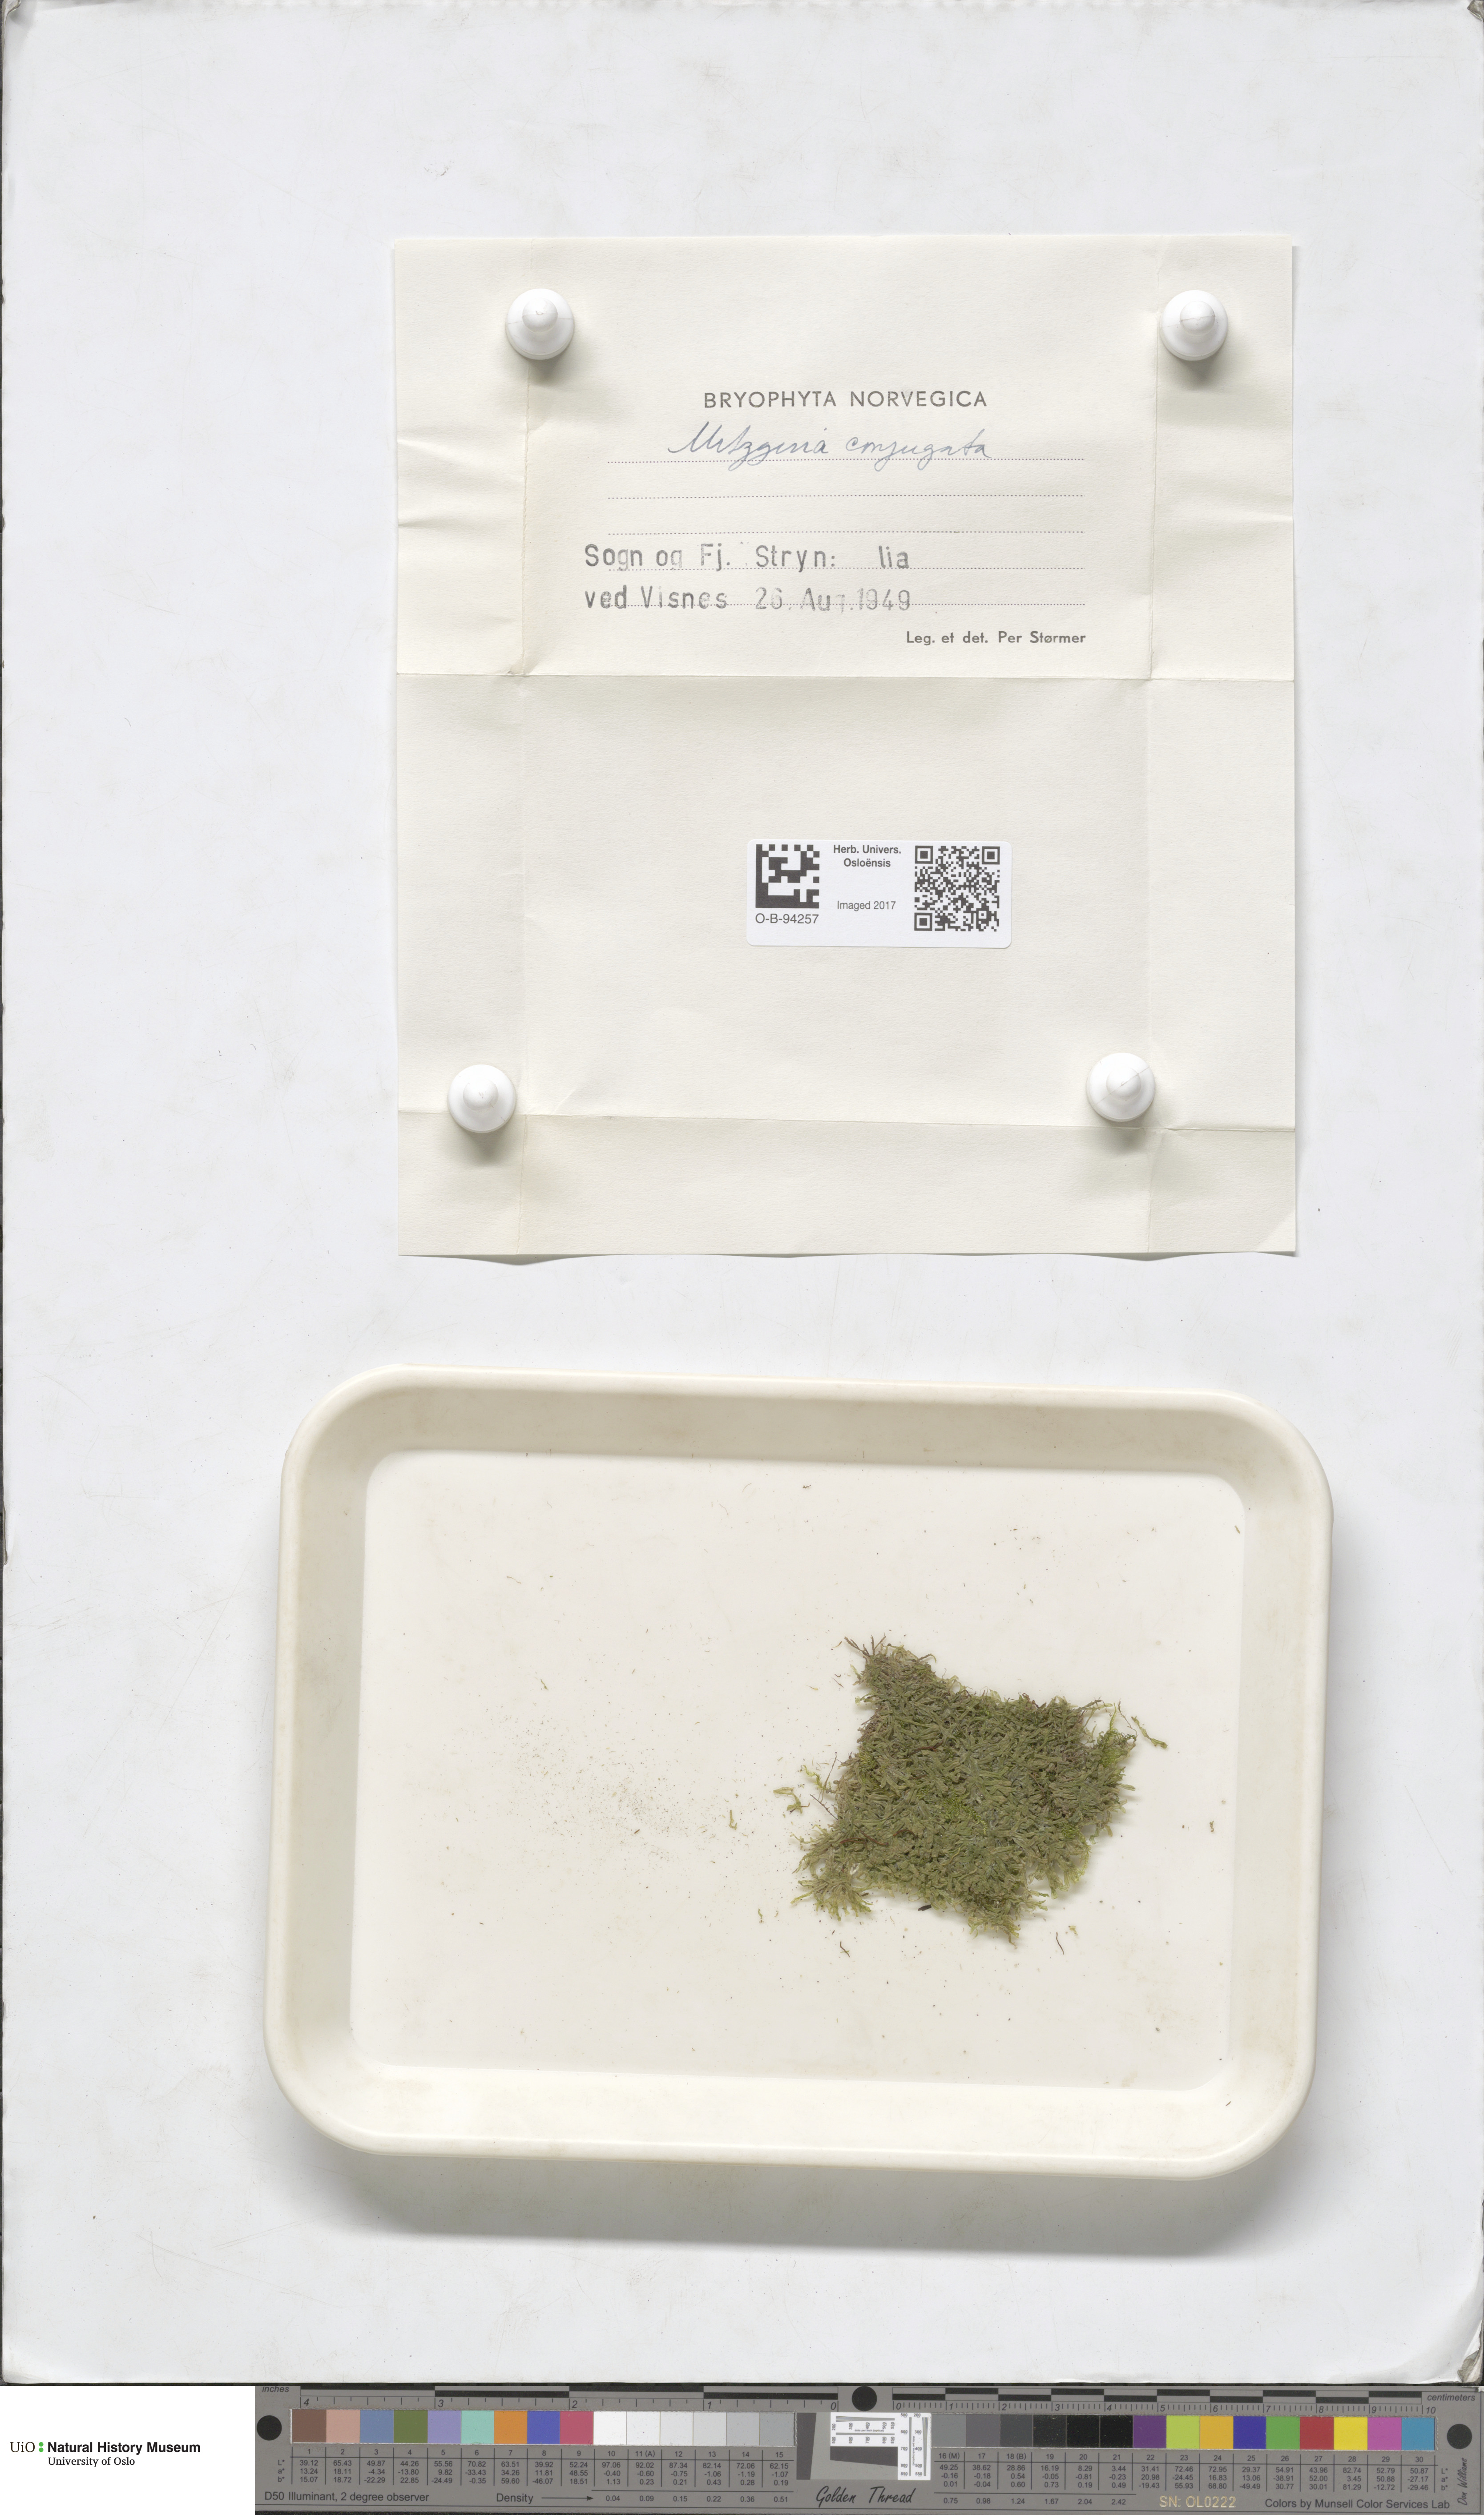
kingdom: Plantae
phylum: Marchantiophyta
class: Jungermanniopsida
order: Metzgeriales
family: Metzgeriaceae
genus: Metzgeria
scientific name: Metzgeria conjugata
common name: Rock veilwort
